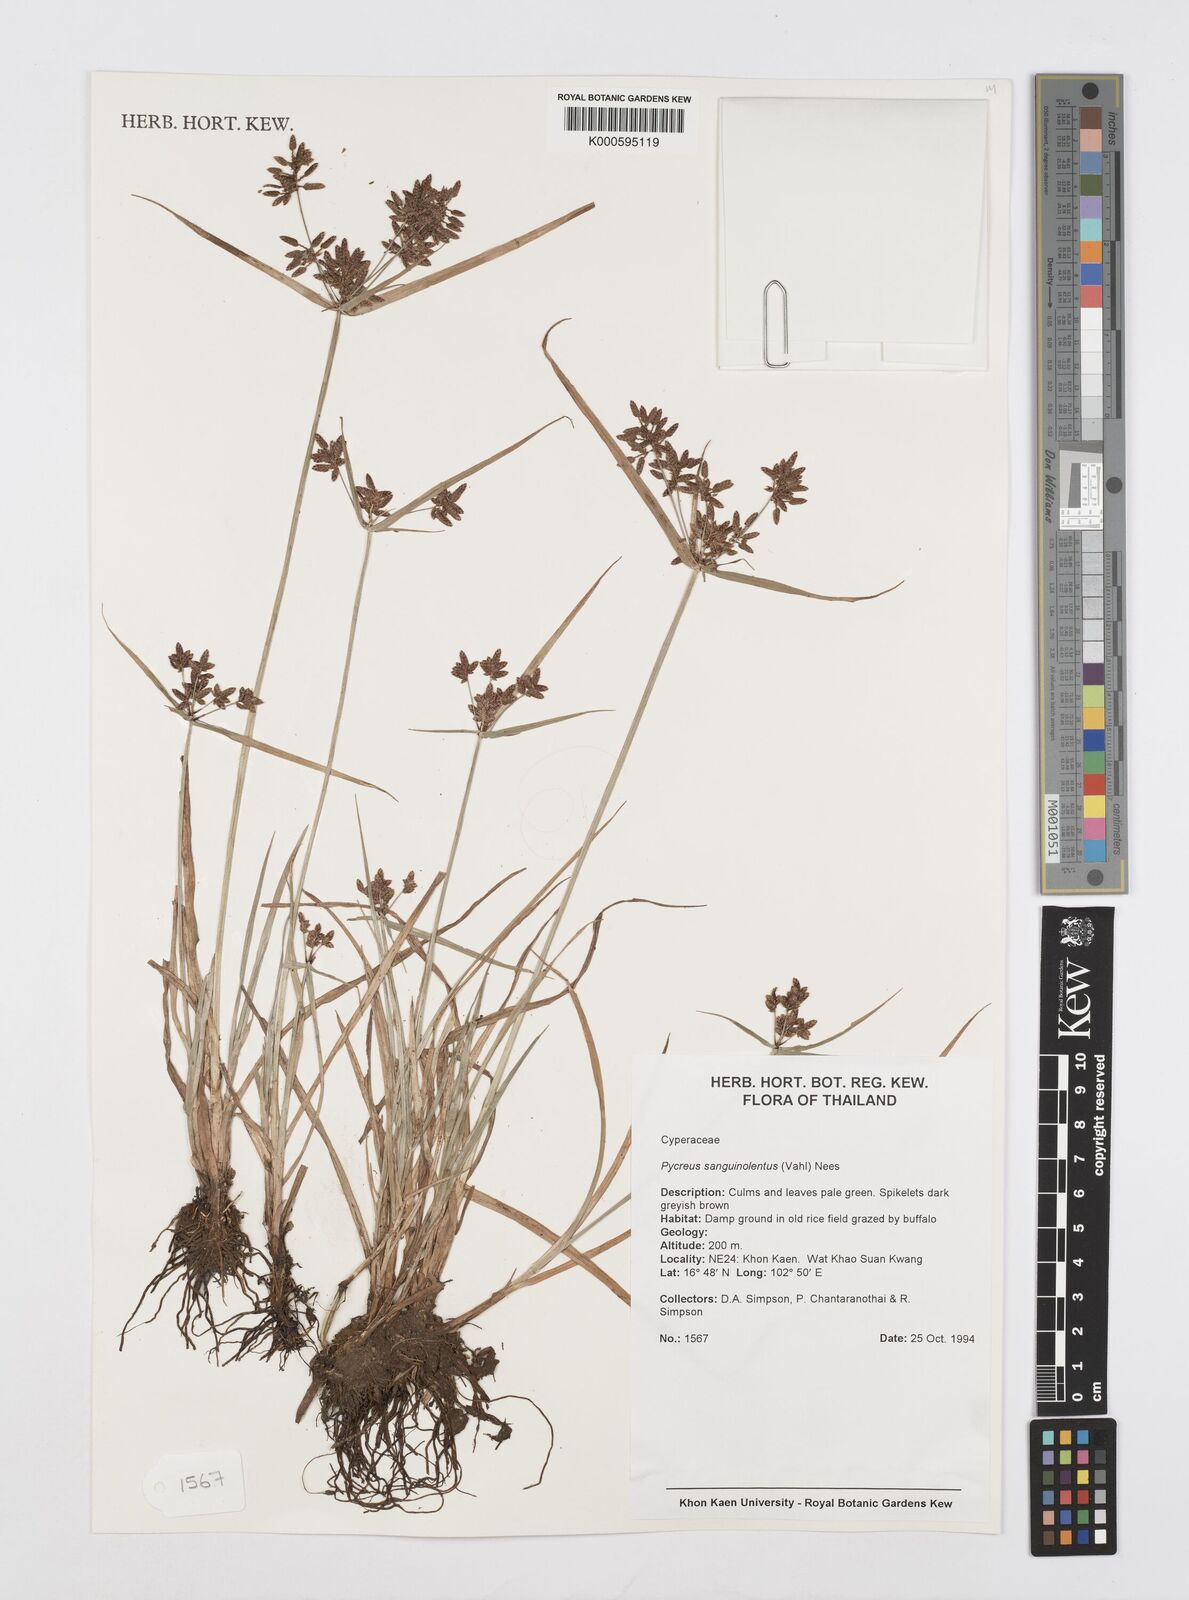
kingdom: Plantae
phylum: Tracheophyta
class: Liliopsida
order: Poales
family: Cyperaceae
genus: Cyperus
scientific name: Cyperus sanguinolentus
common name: Purpleglume flatsedge
